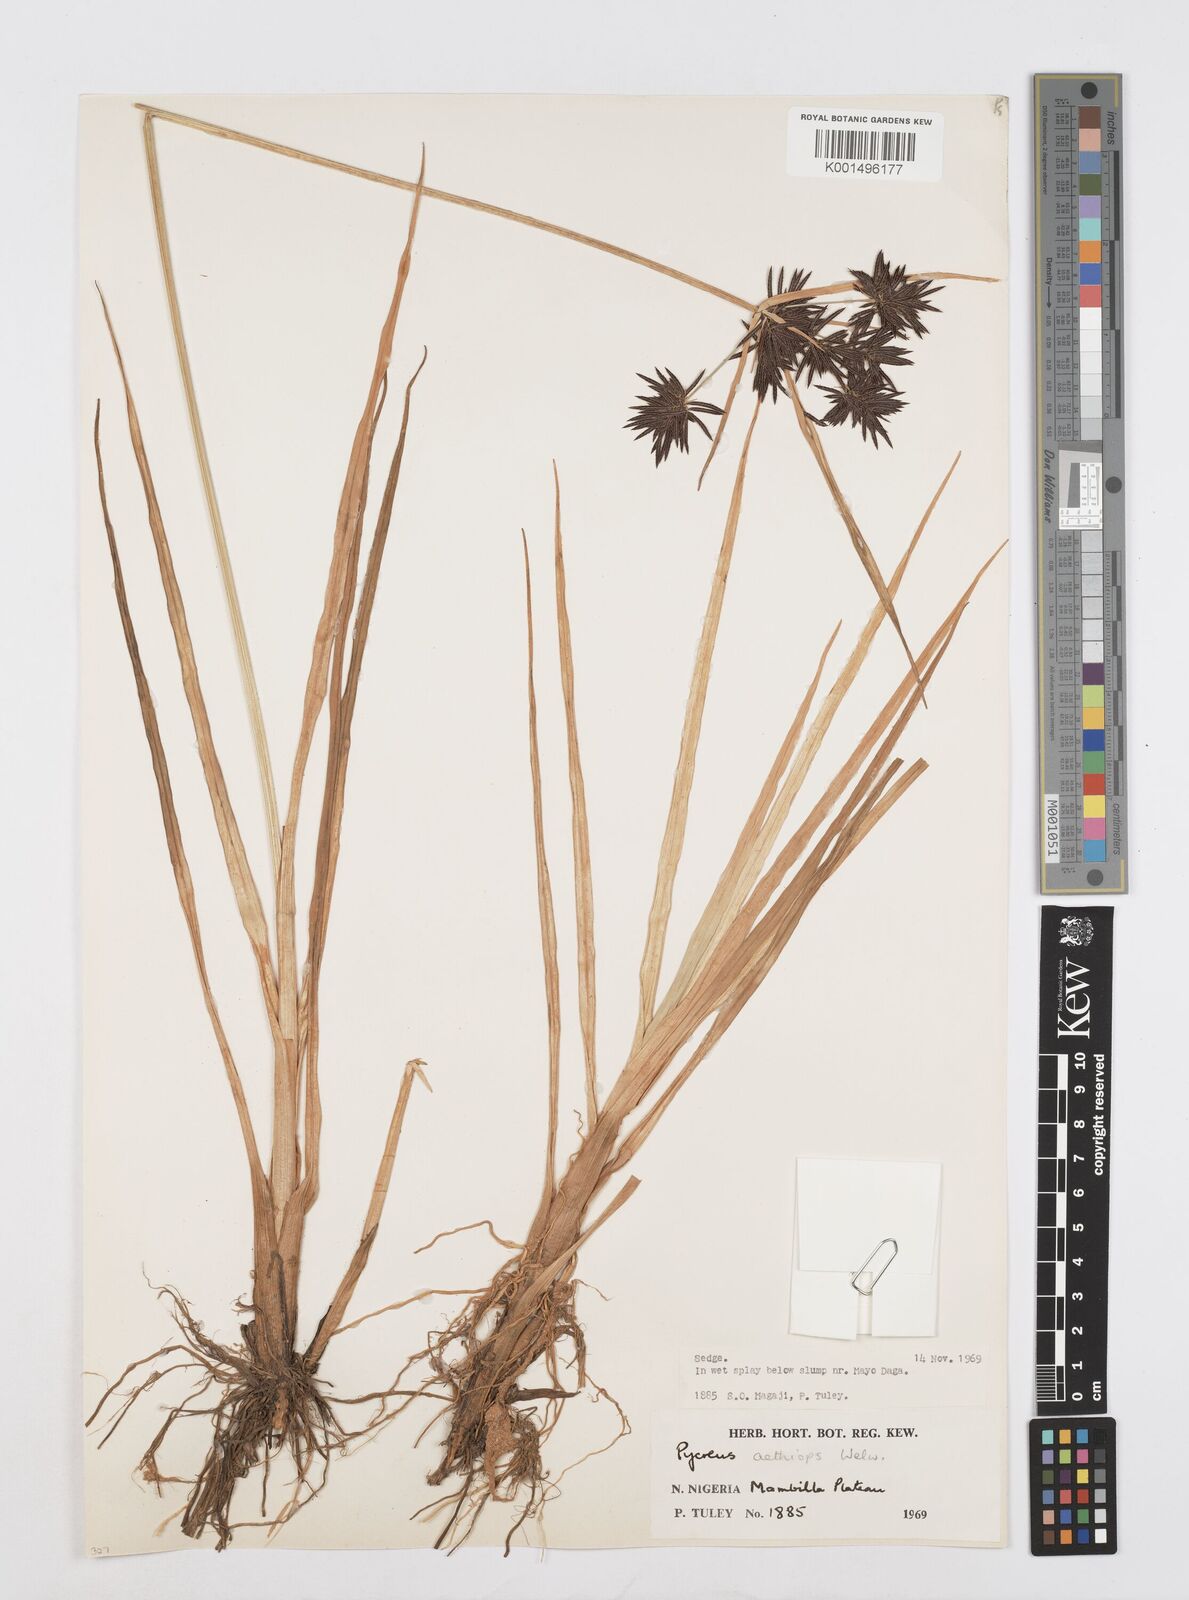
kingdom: Plantae
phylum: Tracheophyta
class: Liliopsida
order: Poales
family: Cyperaceae
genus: Cyperus
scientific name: Cyperus aethiops
